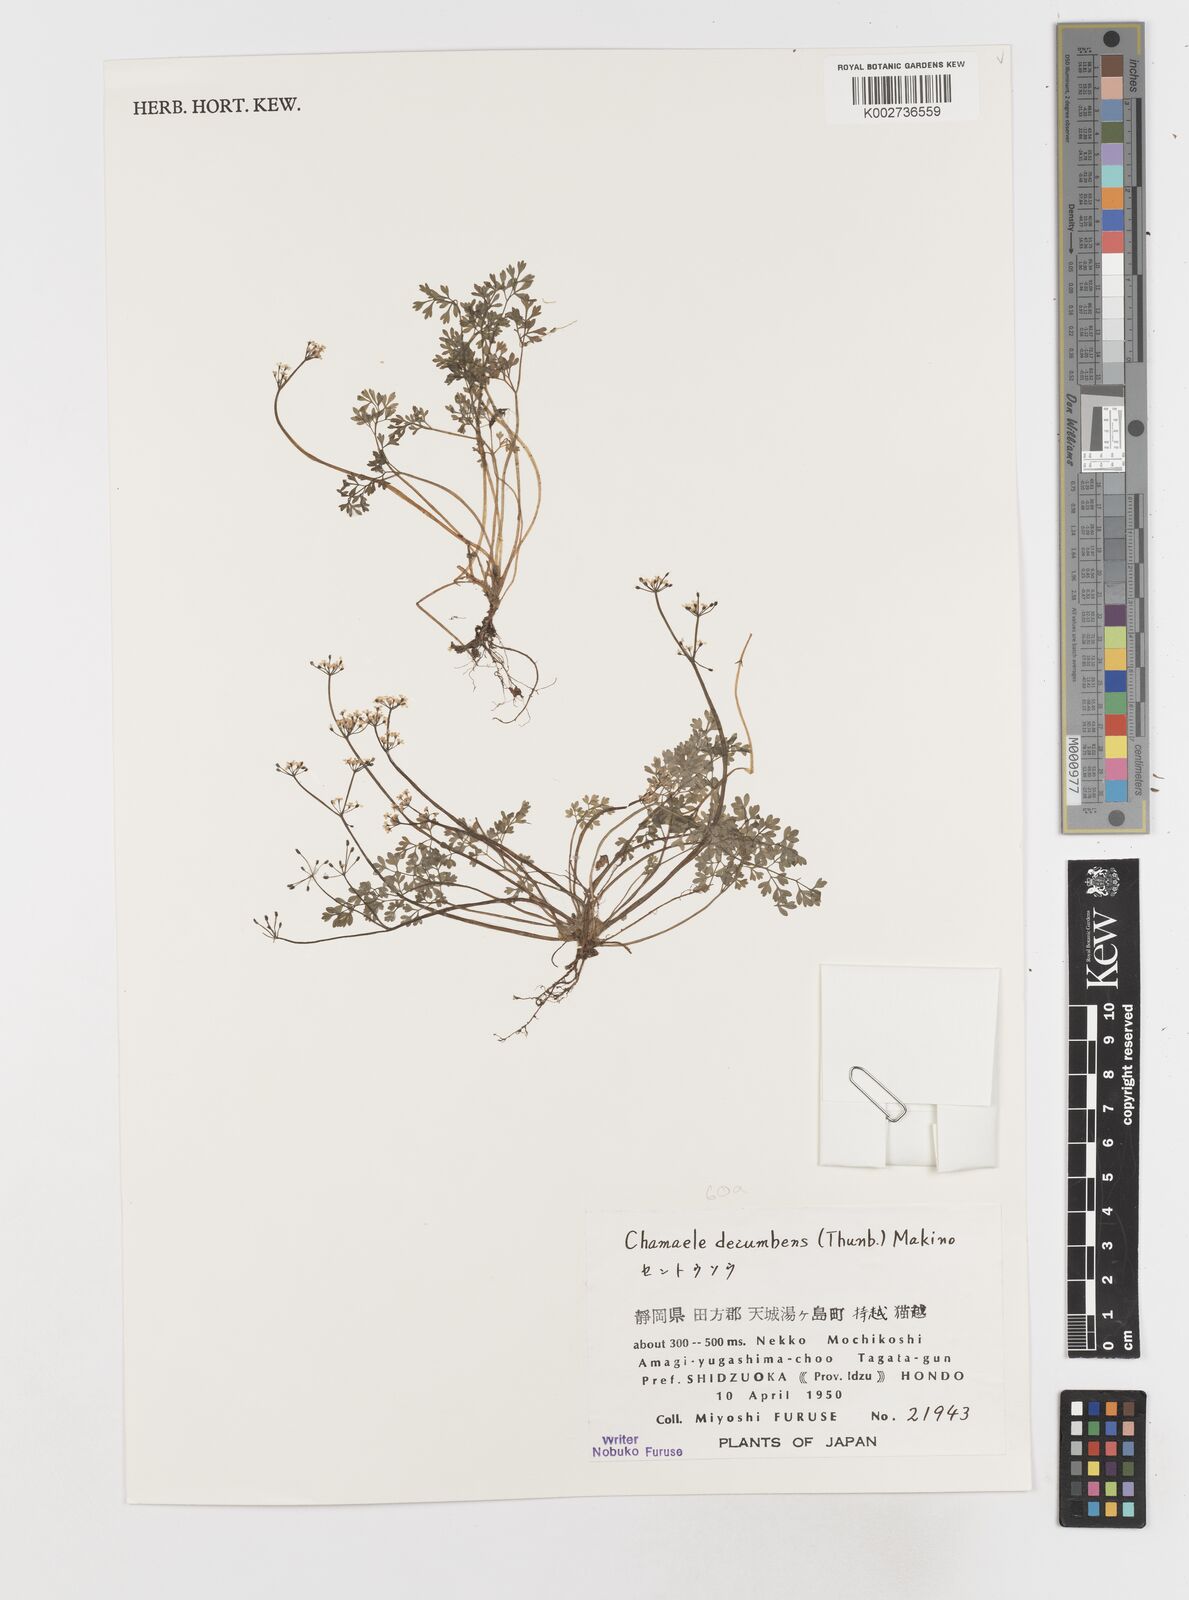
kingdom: Plantae
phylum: Tracheophyta
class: Magnoliopsida
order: Apiales
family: Apiaceae
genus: Aegopodium
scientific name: Aegopodium decumbens
